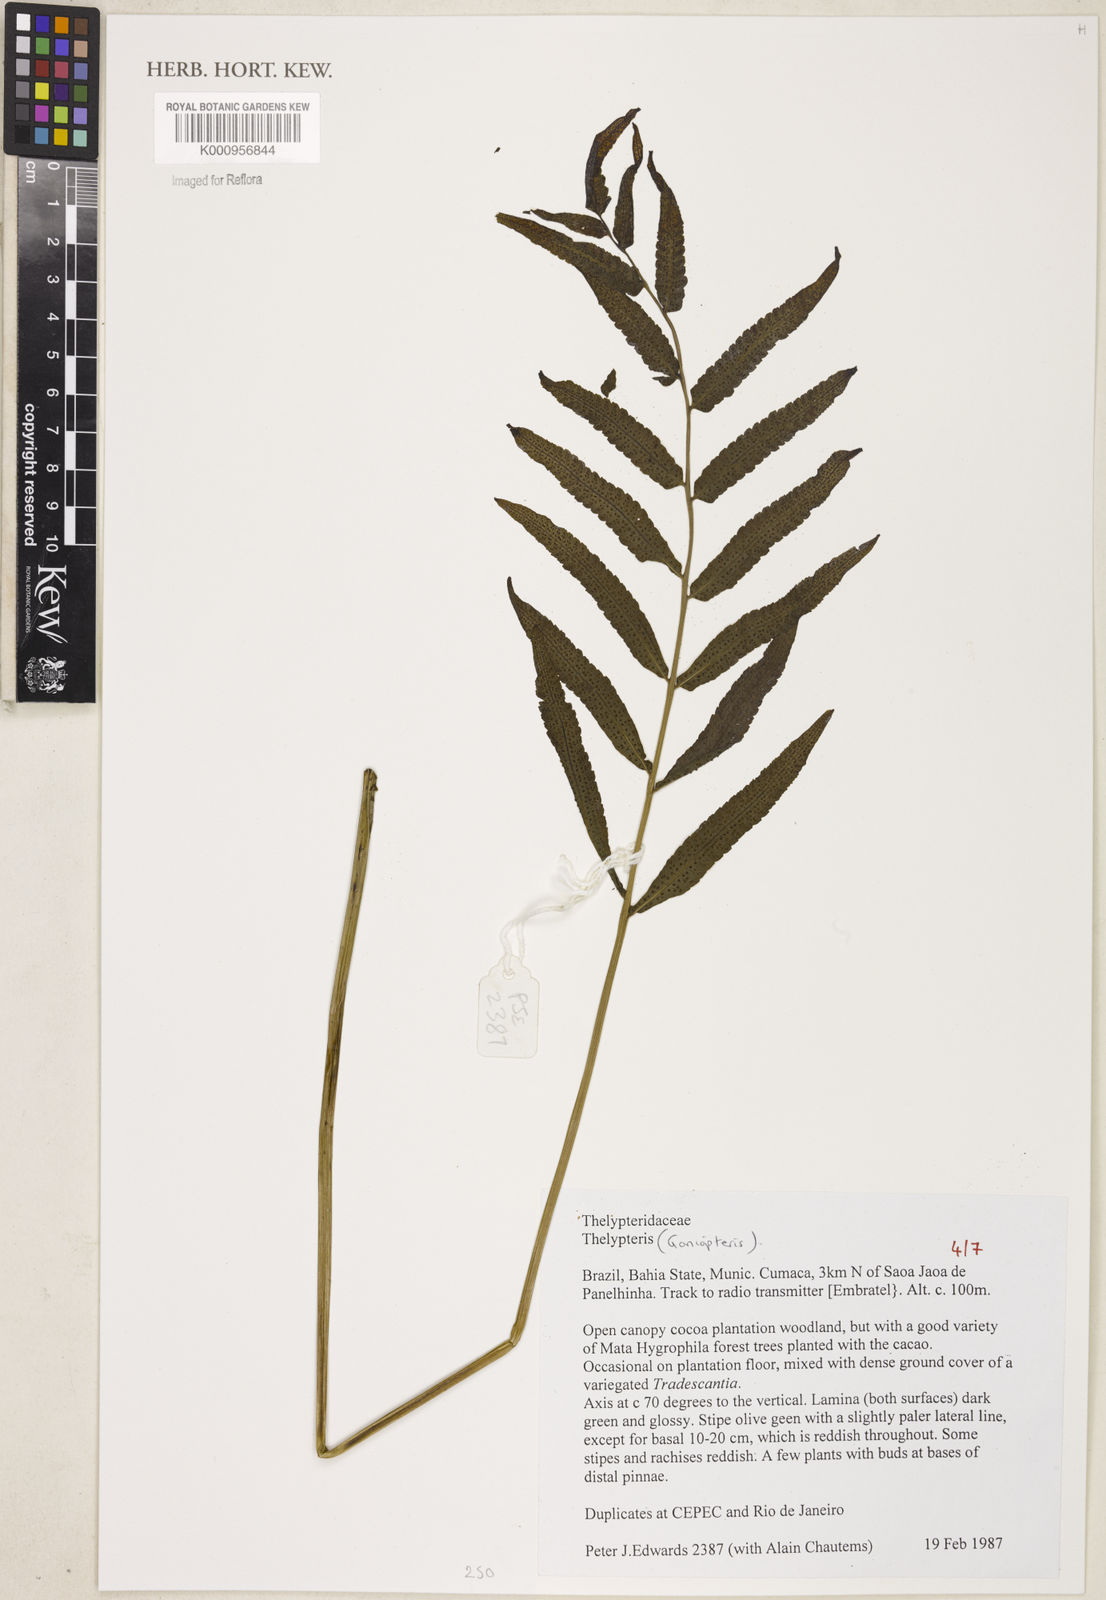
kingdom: Plantae
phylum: Tracheophyta
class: Polypodiopsida
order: Polypodiales
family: Thelypteridaceae
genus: Goniopteris
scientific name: Goniopteris
